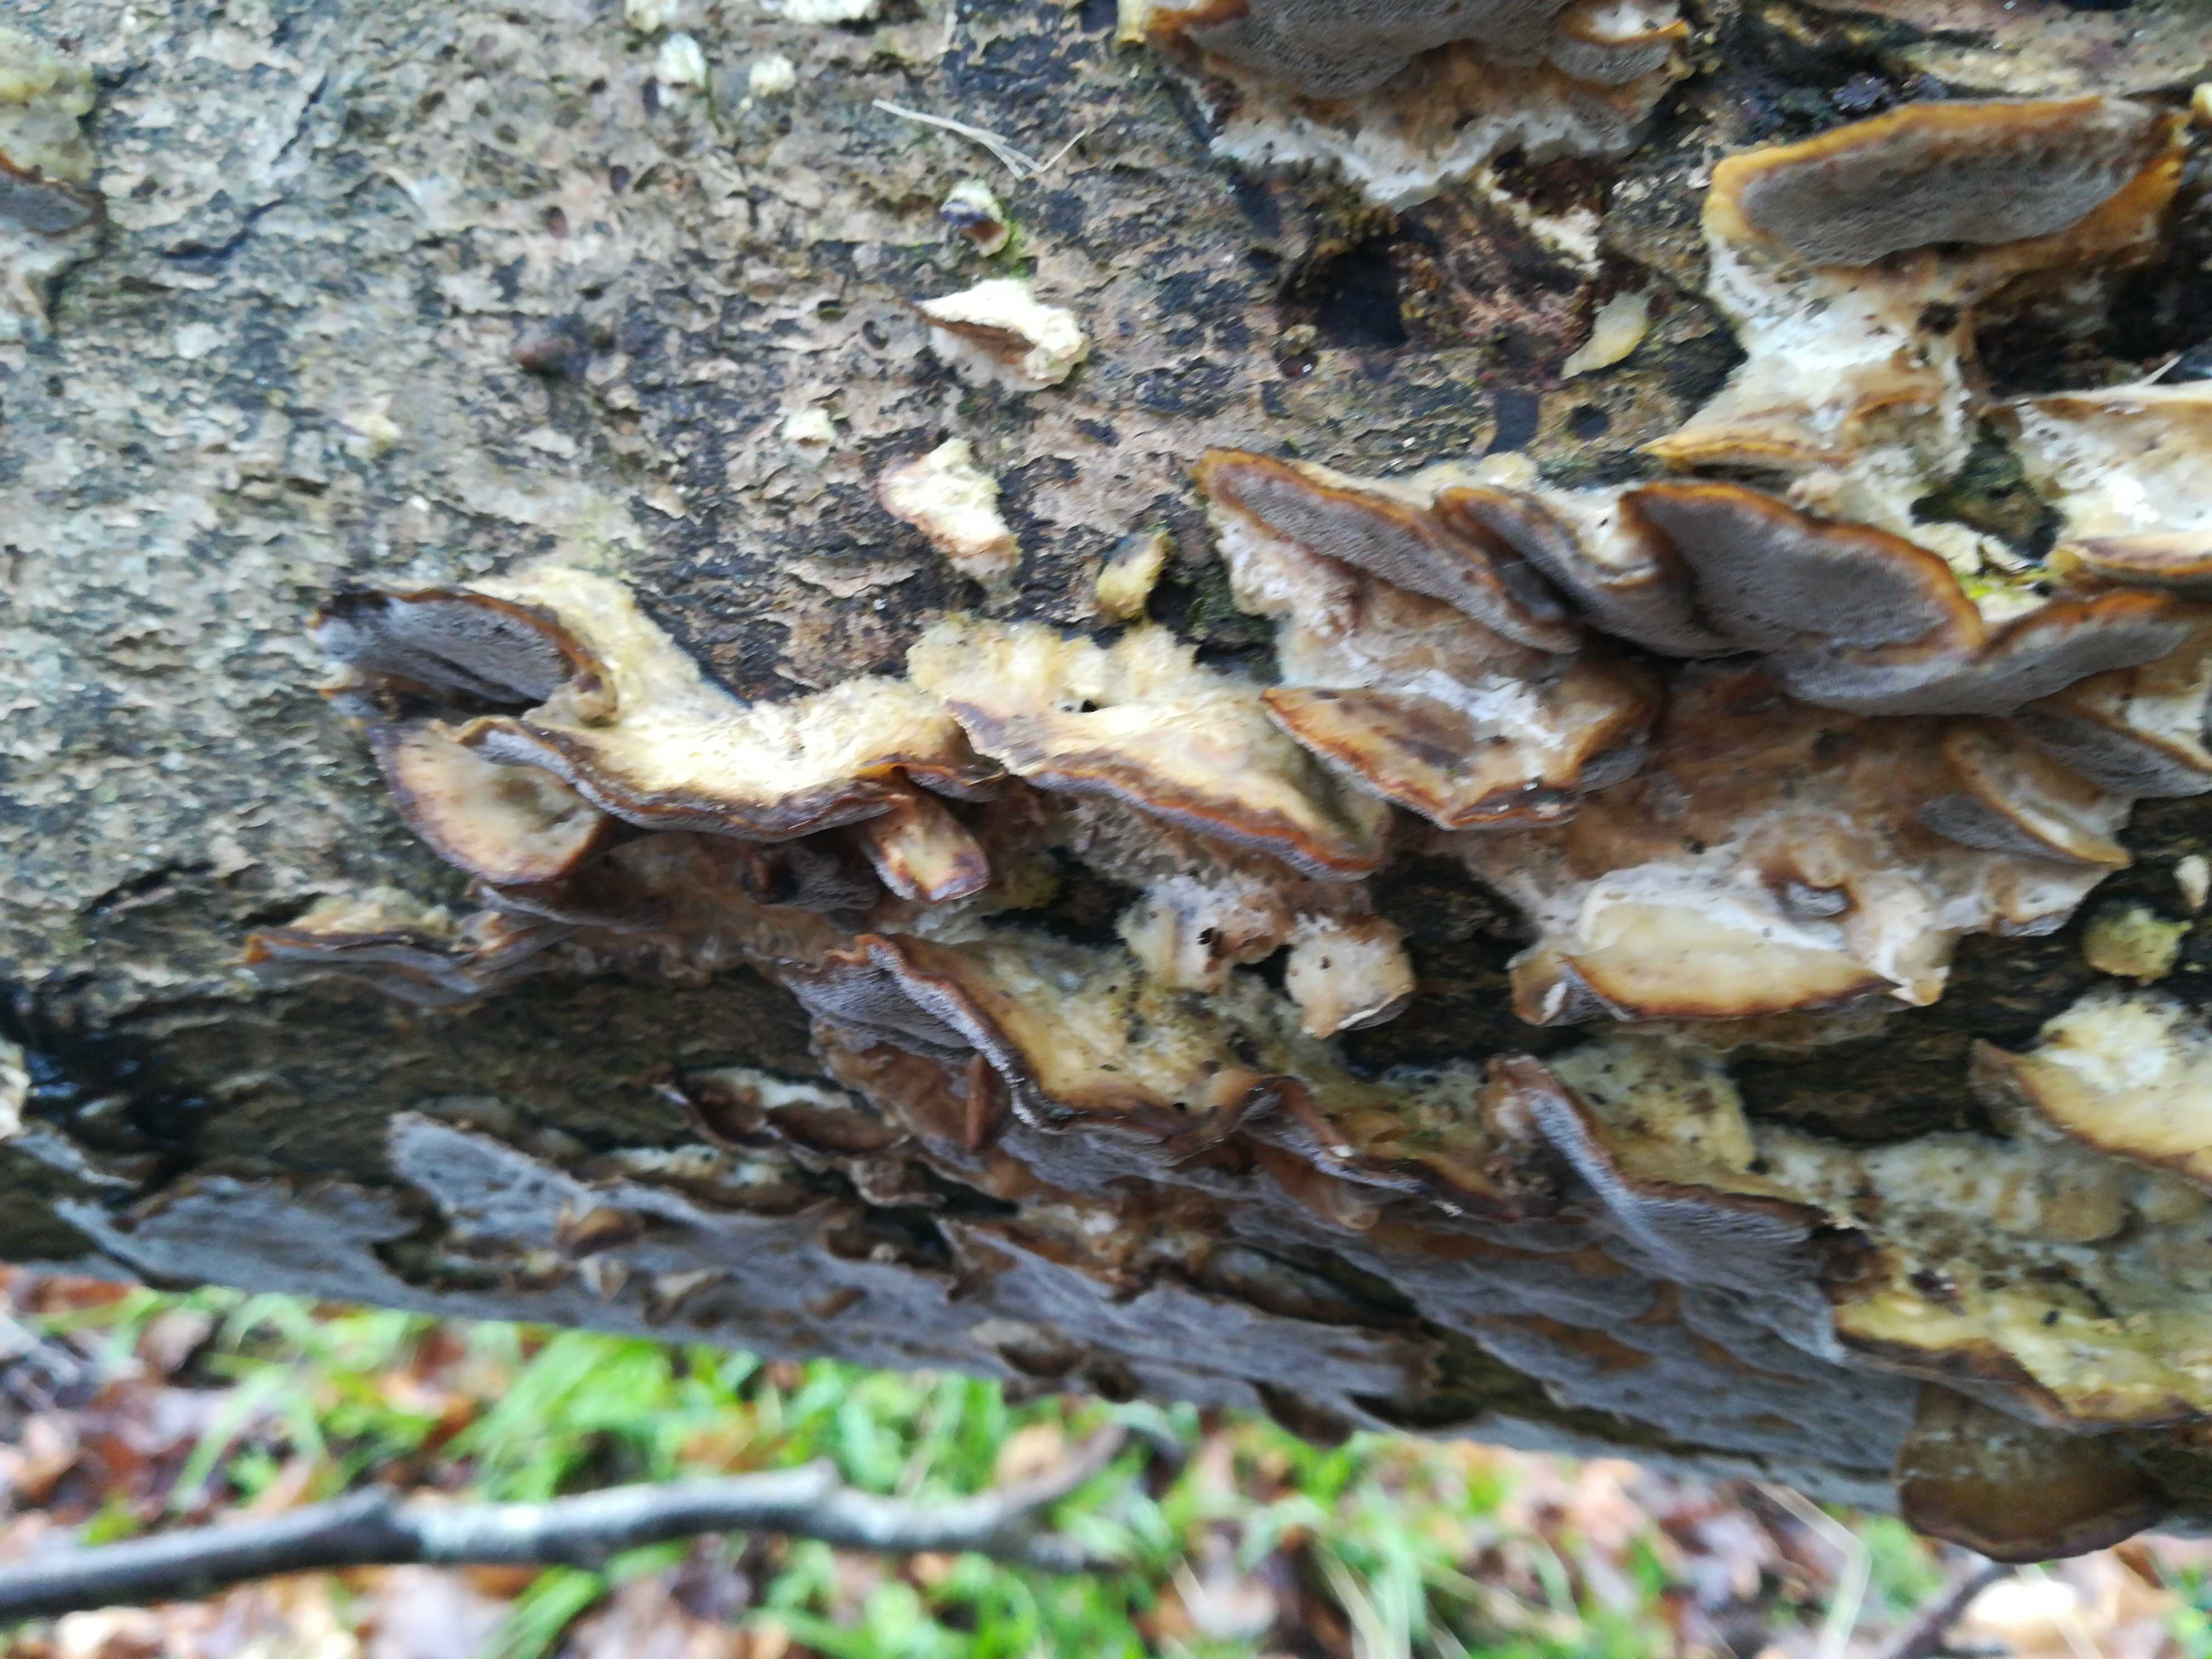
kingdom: Fungi
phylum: Basidiomycota
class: Agaricomycetes
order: Polyporales
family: Phanerochaetaceae
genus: Bjerkandera
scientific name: Bjerkandera adusta
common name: sveden sodporesvamp
